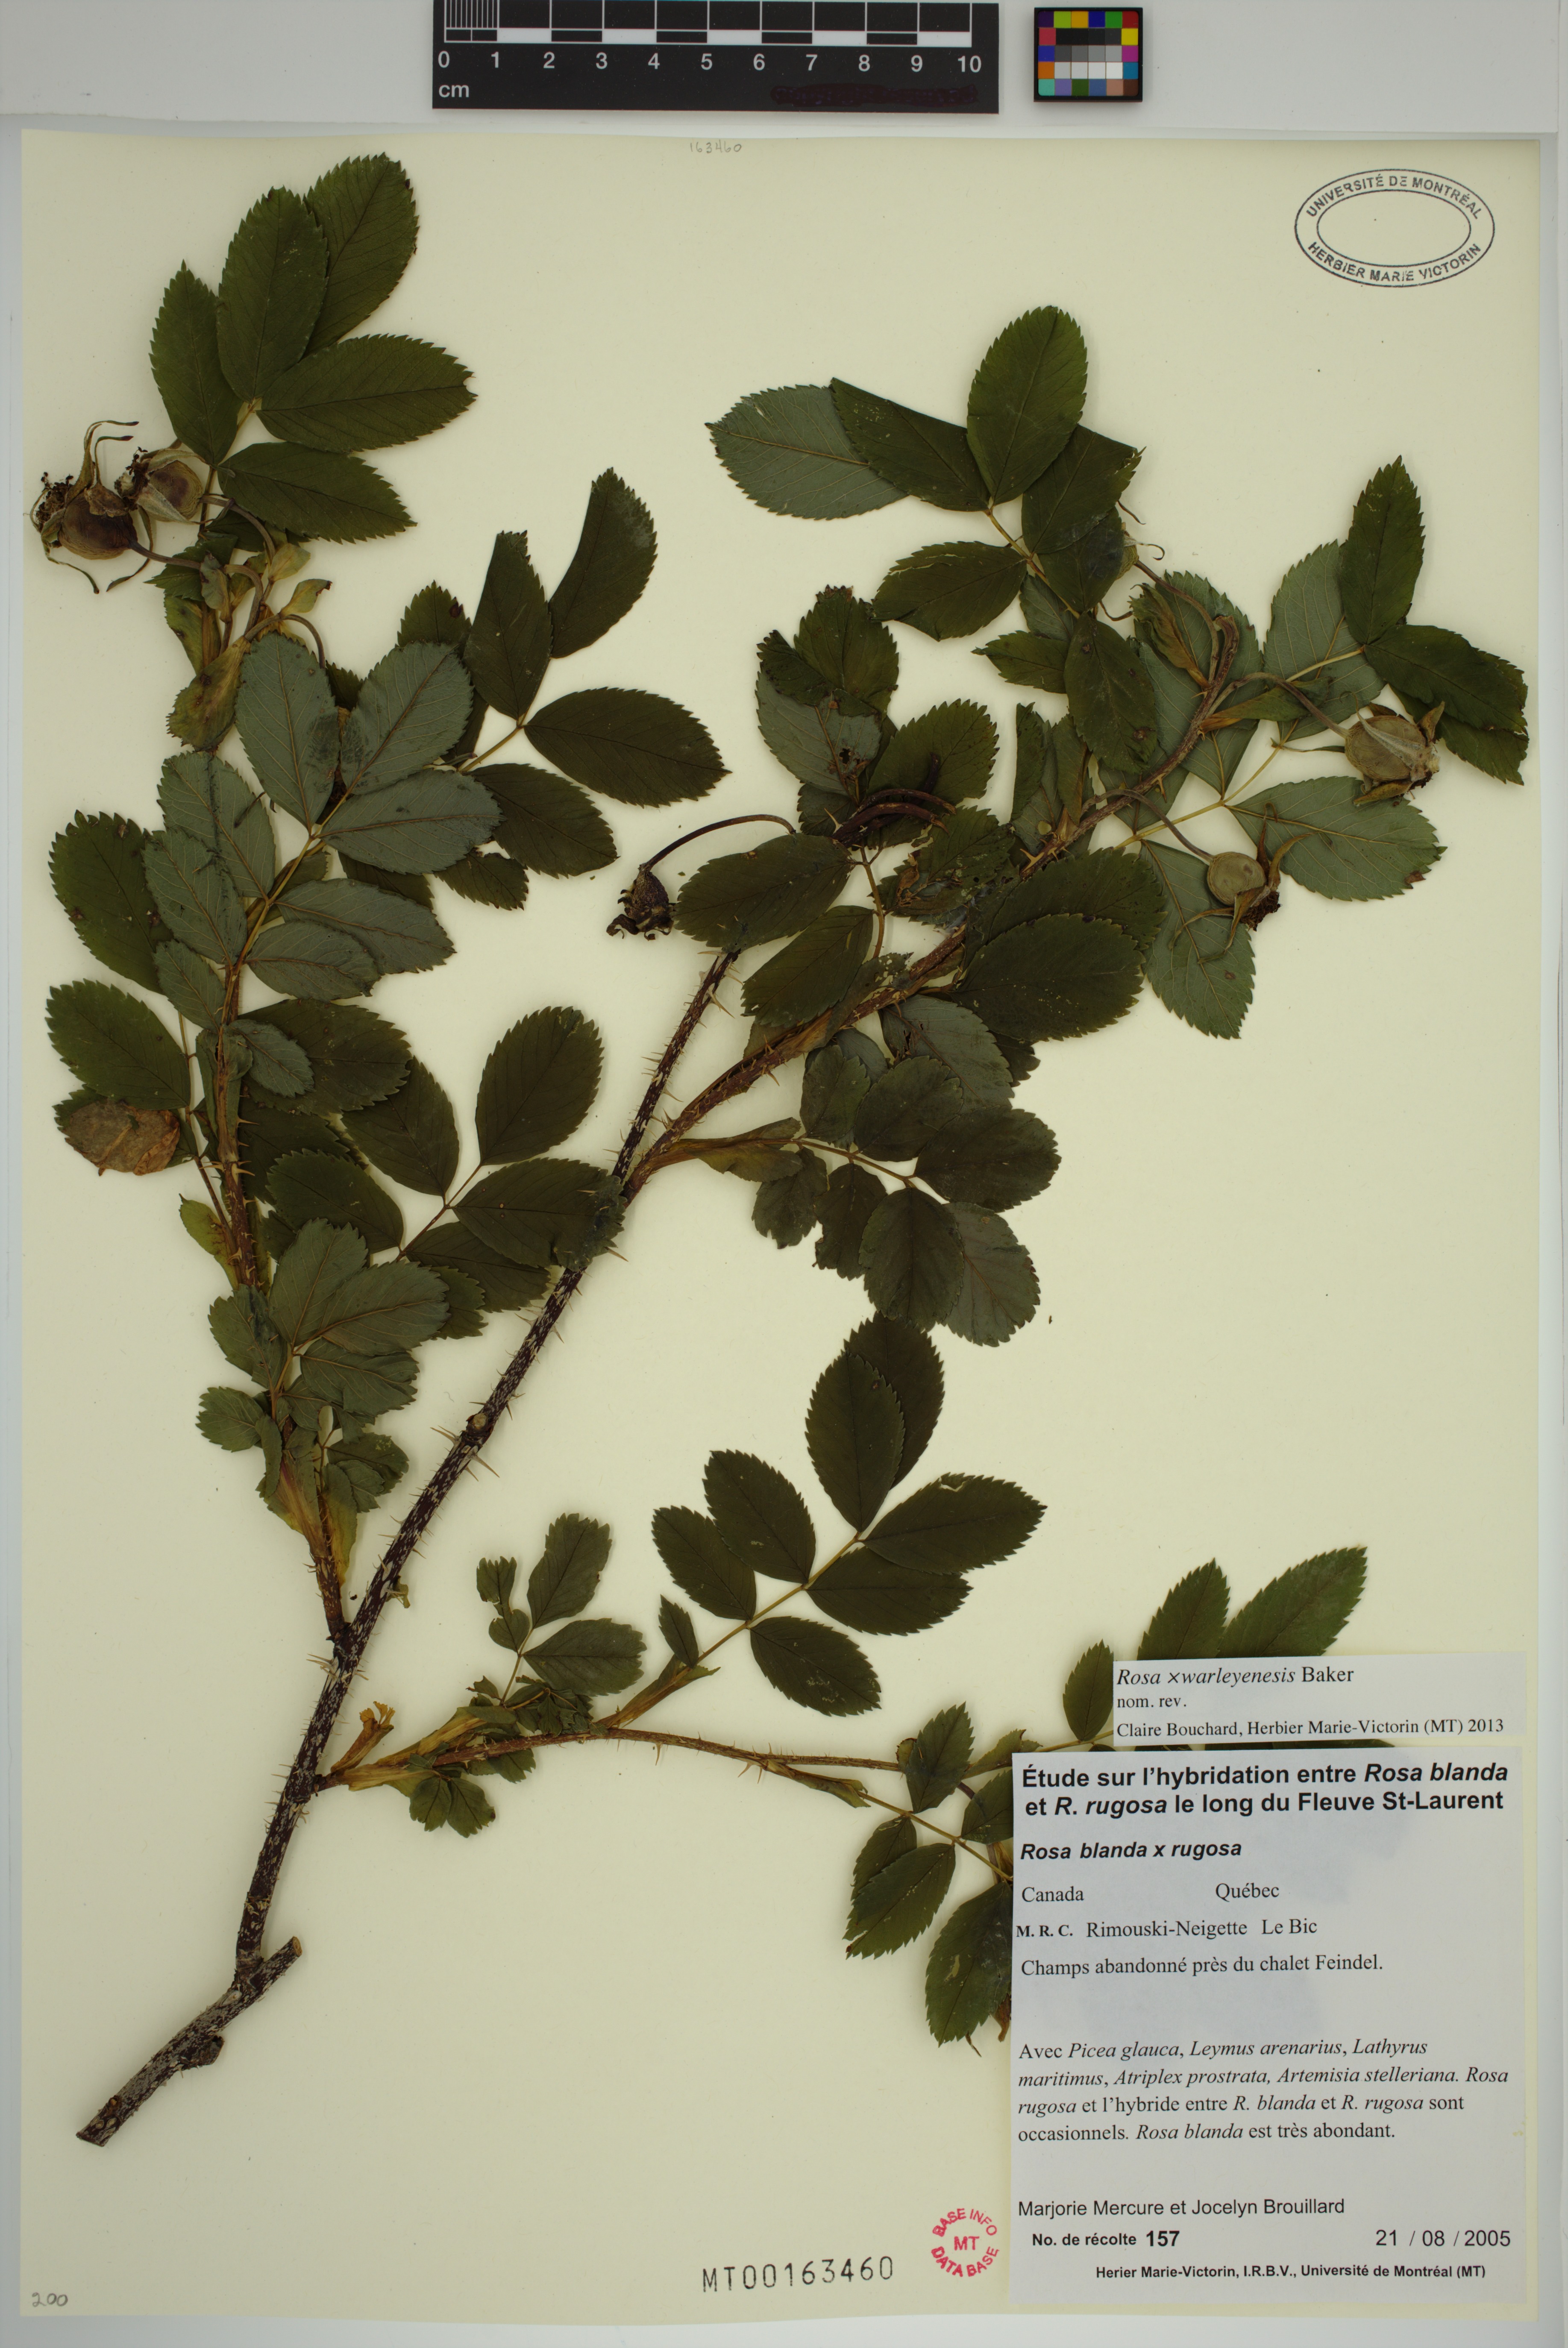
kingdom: Plantae
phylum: Tracheophyta
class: Magnoliopsida
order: Rosales
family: Rosaceae
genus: Rosa
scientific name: Rosa warleyensis
